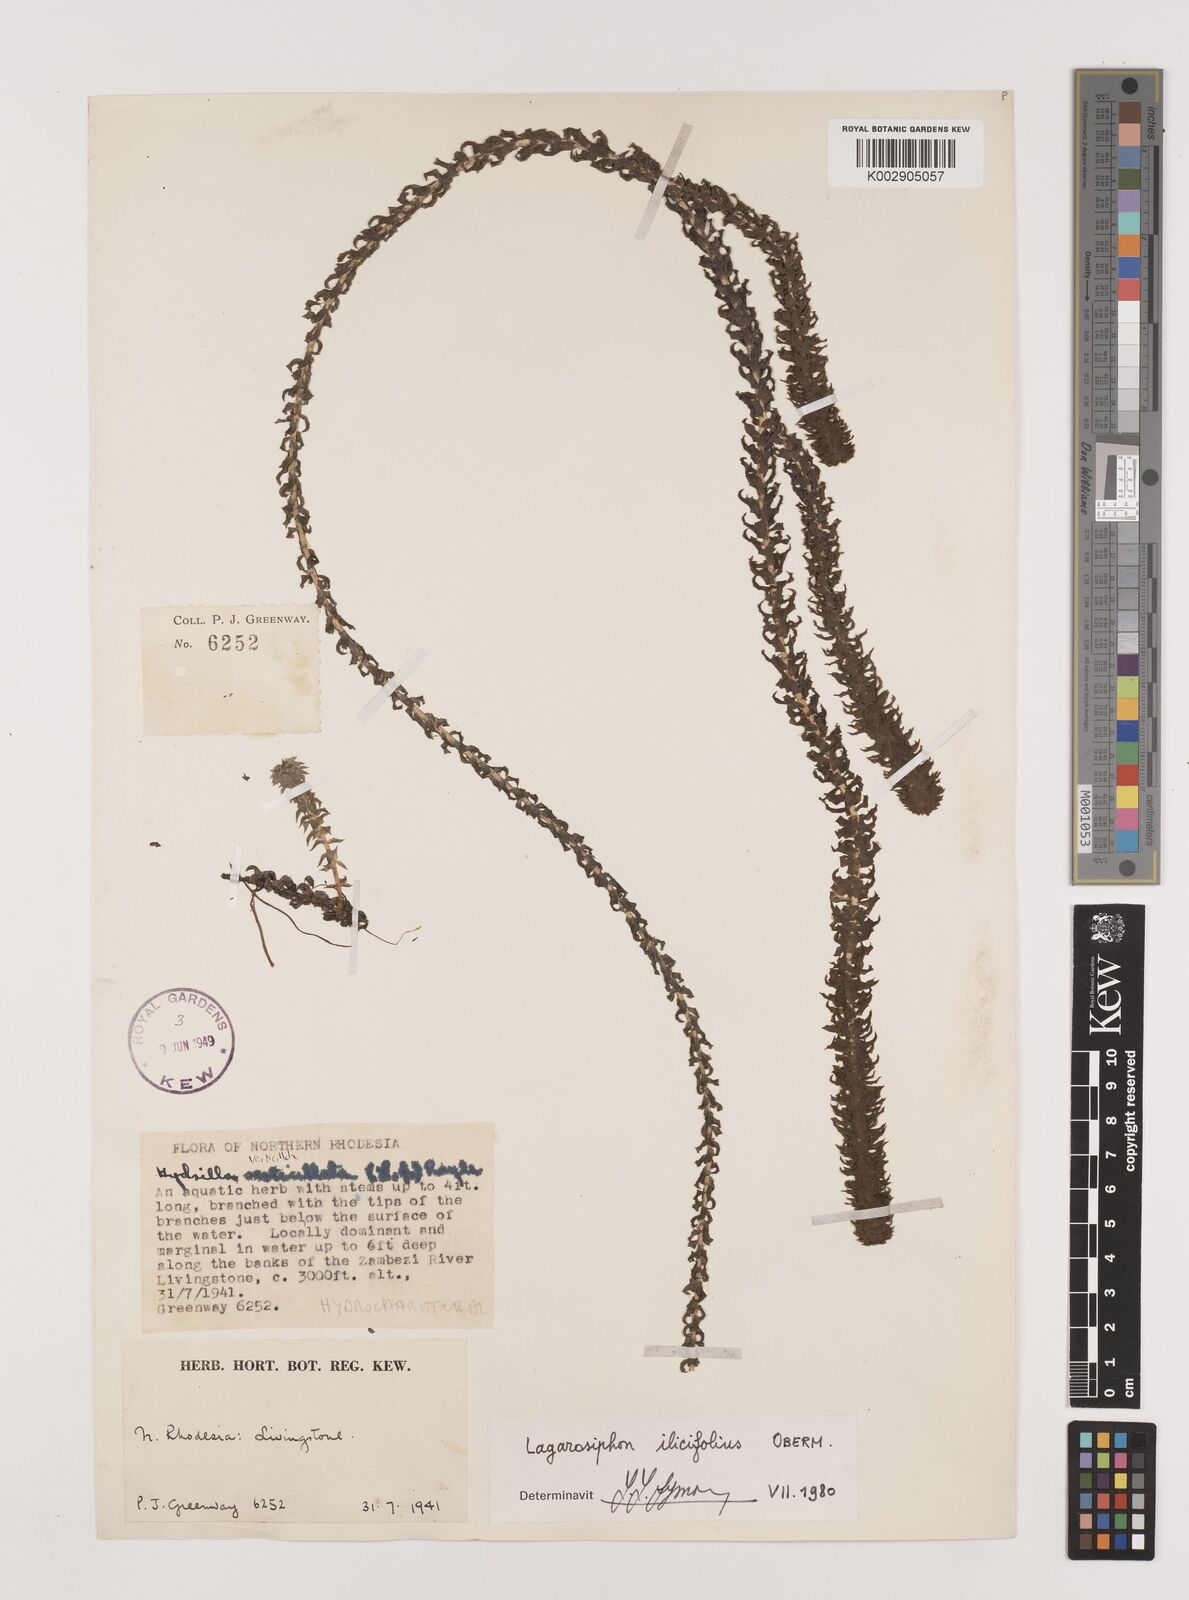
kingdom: Plantae
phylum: Tracheophyta
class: Liliopsida
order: Alismatales
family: Hydrocharitaceae
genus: Lagarosiphon
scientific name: Lagarosiphon ilicifolius
